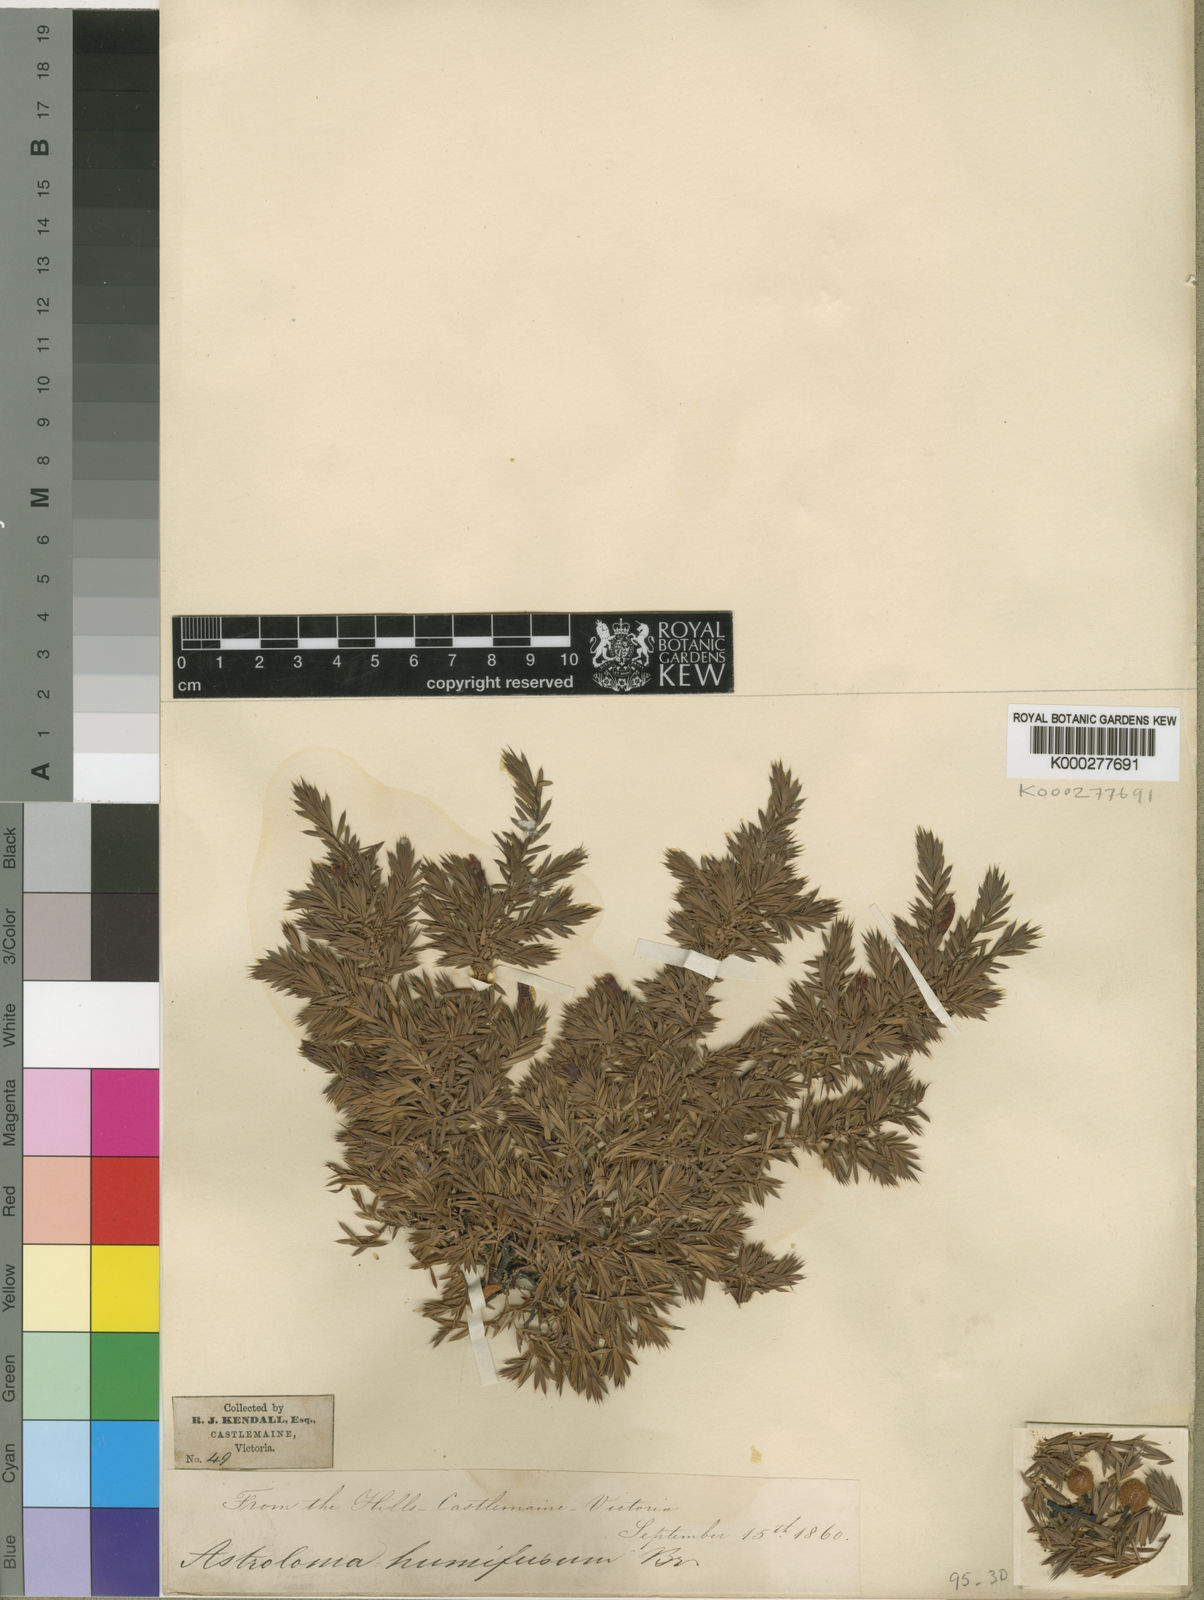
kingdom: Plantae
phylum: Tracheophyta
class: Magnoliopsida
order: Ericales
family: Ericaceae
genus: Styphelia
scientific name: Styphelia humifusa
